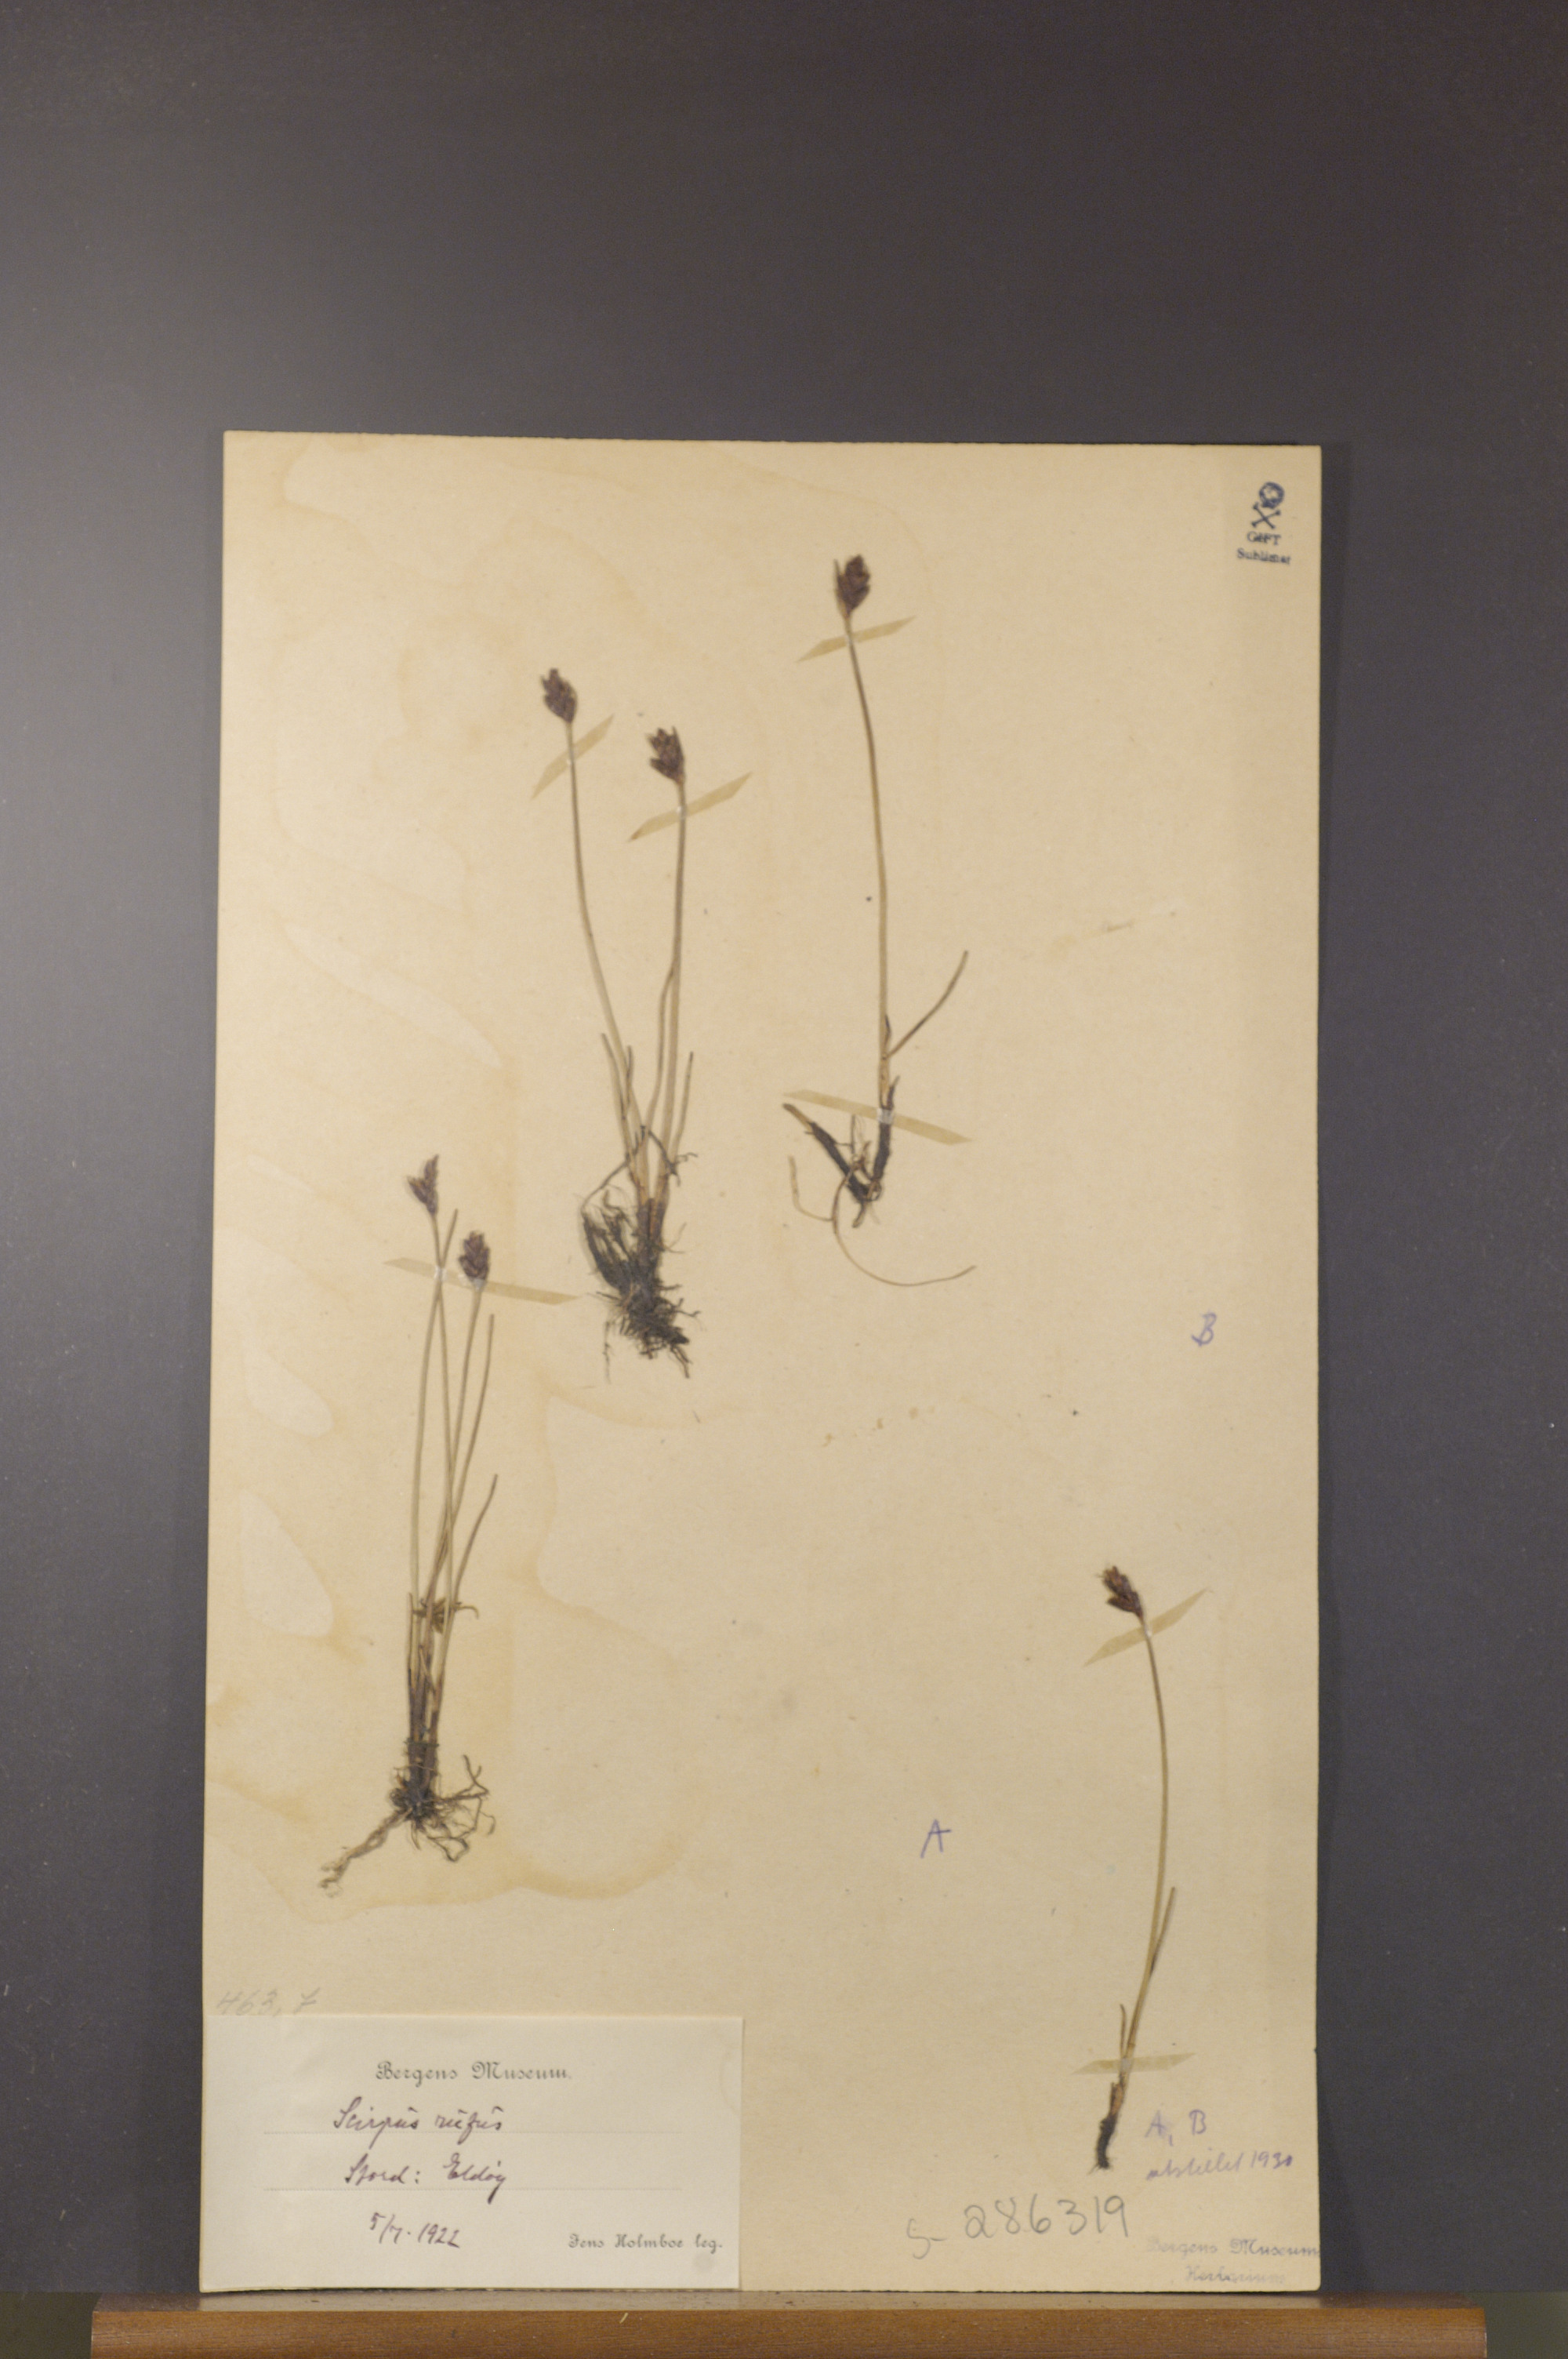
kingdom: Plantae
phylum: Tracheophyta
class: Liliopsida
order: Poales
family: Cyperaceae
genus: Blysmus
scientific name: Blysmus rufus
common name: Saltmarsh flat-sedge
